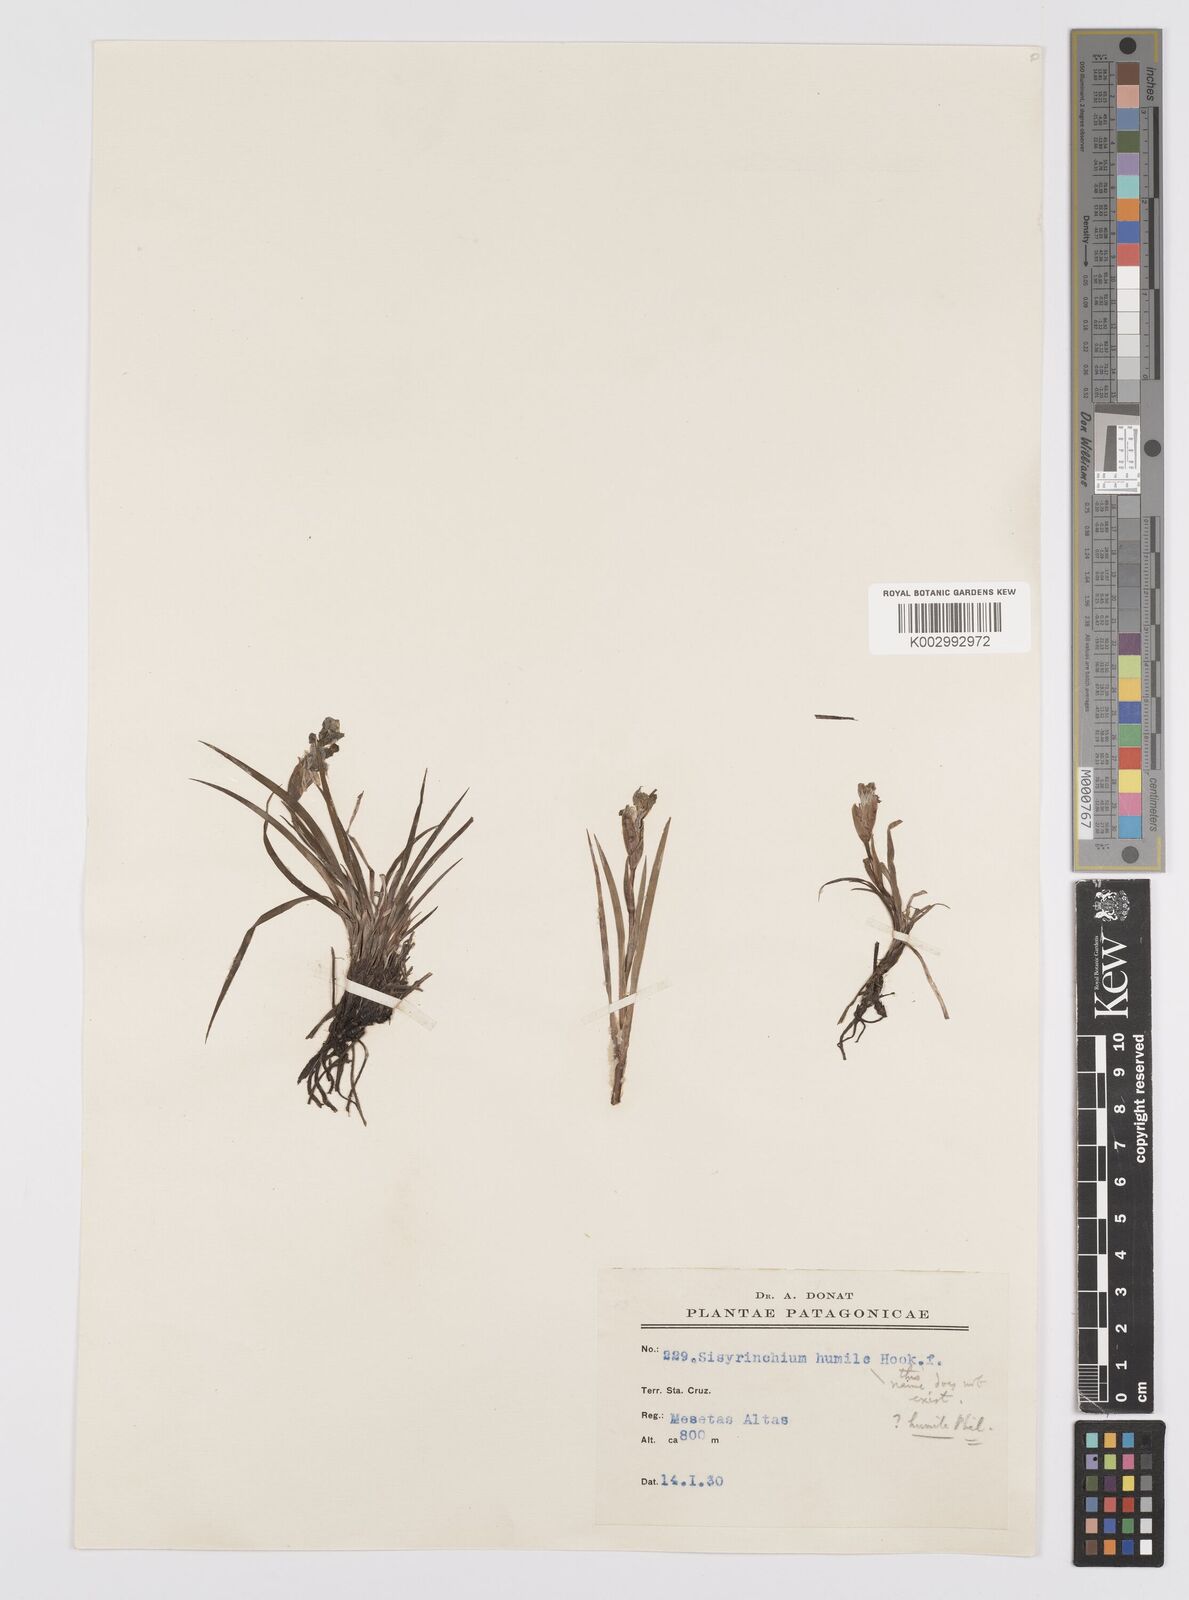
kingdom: Plantae
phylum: Tracheophyta
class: Liliopsida
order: Asparagales
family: Iridaceae
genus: Sisyrinchium
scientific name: Sisyrinchium arenarium
